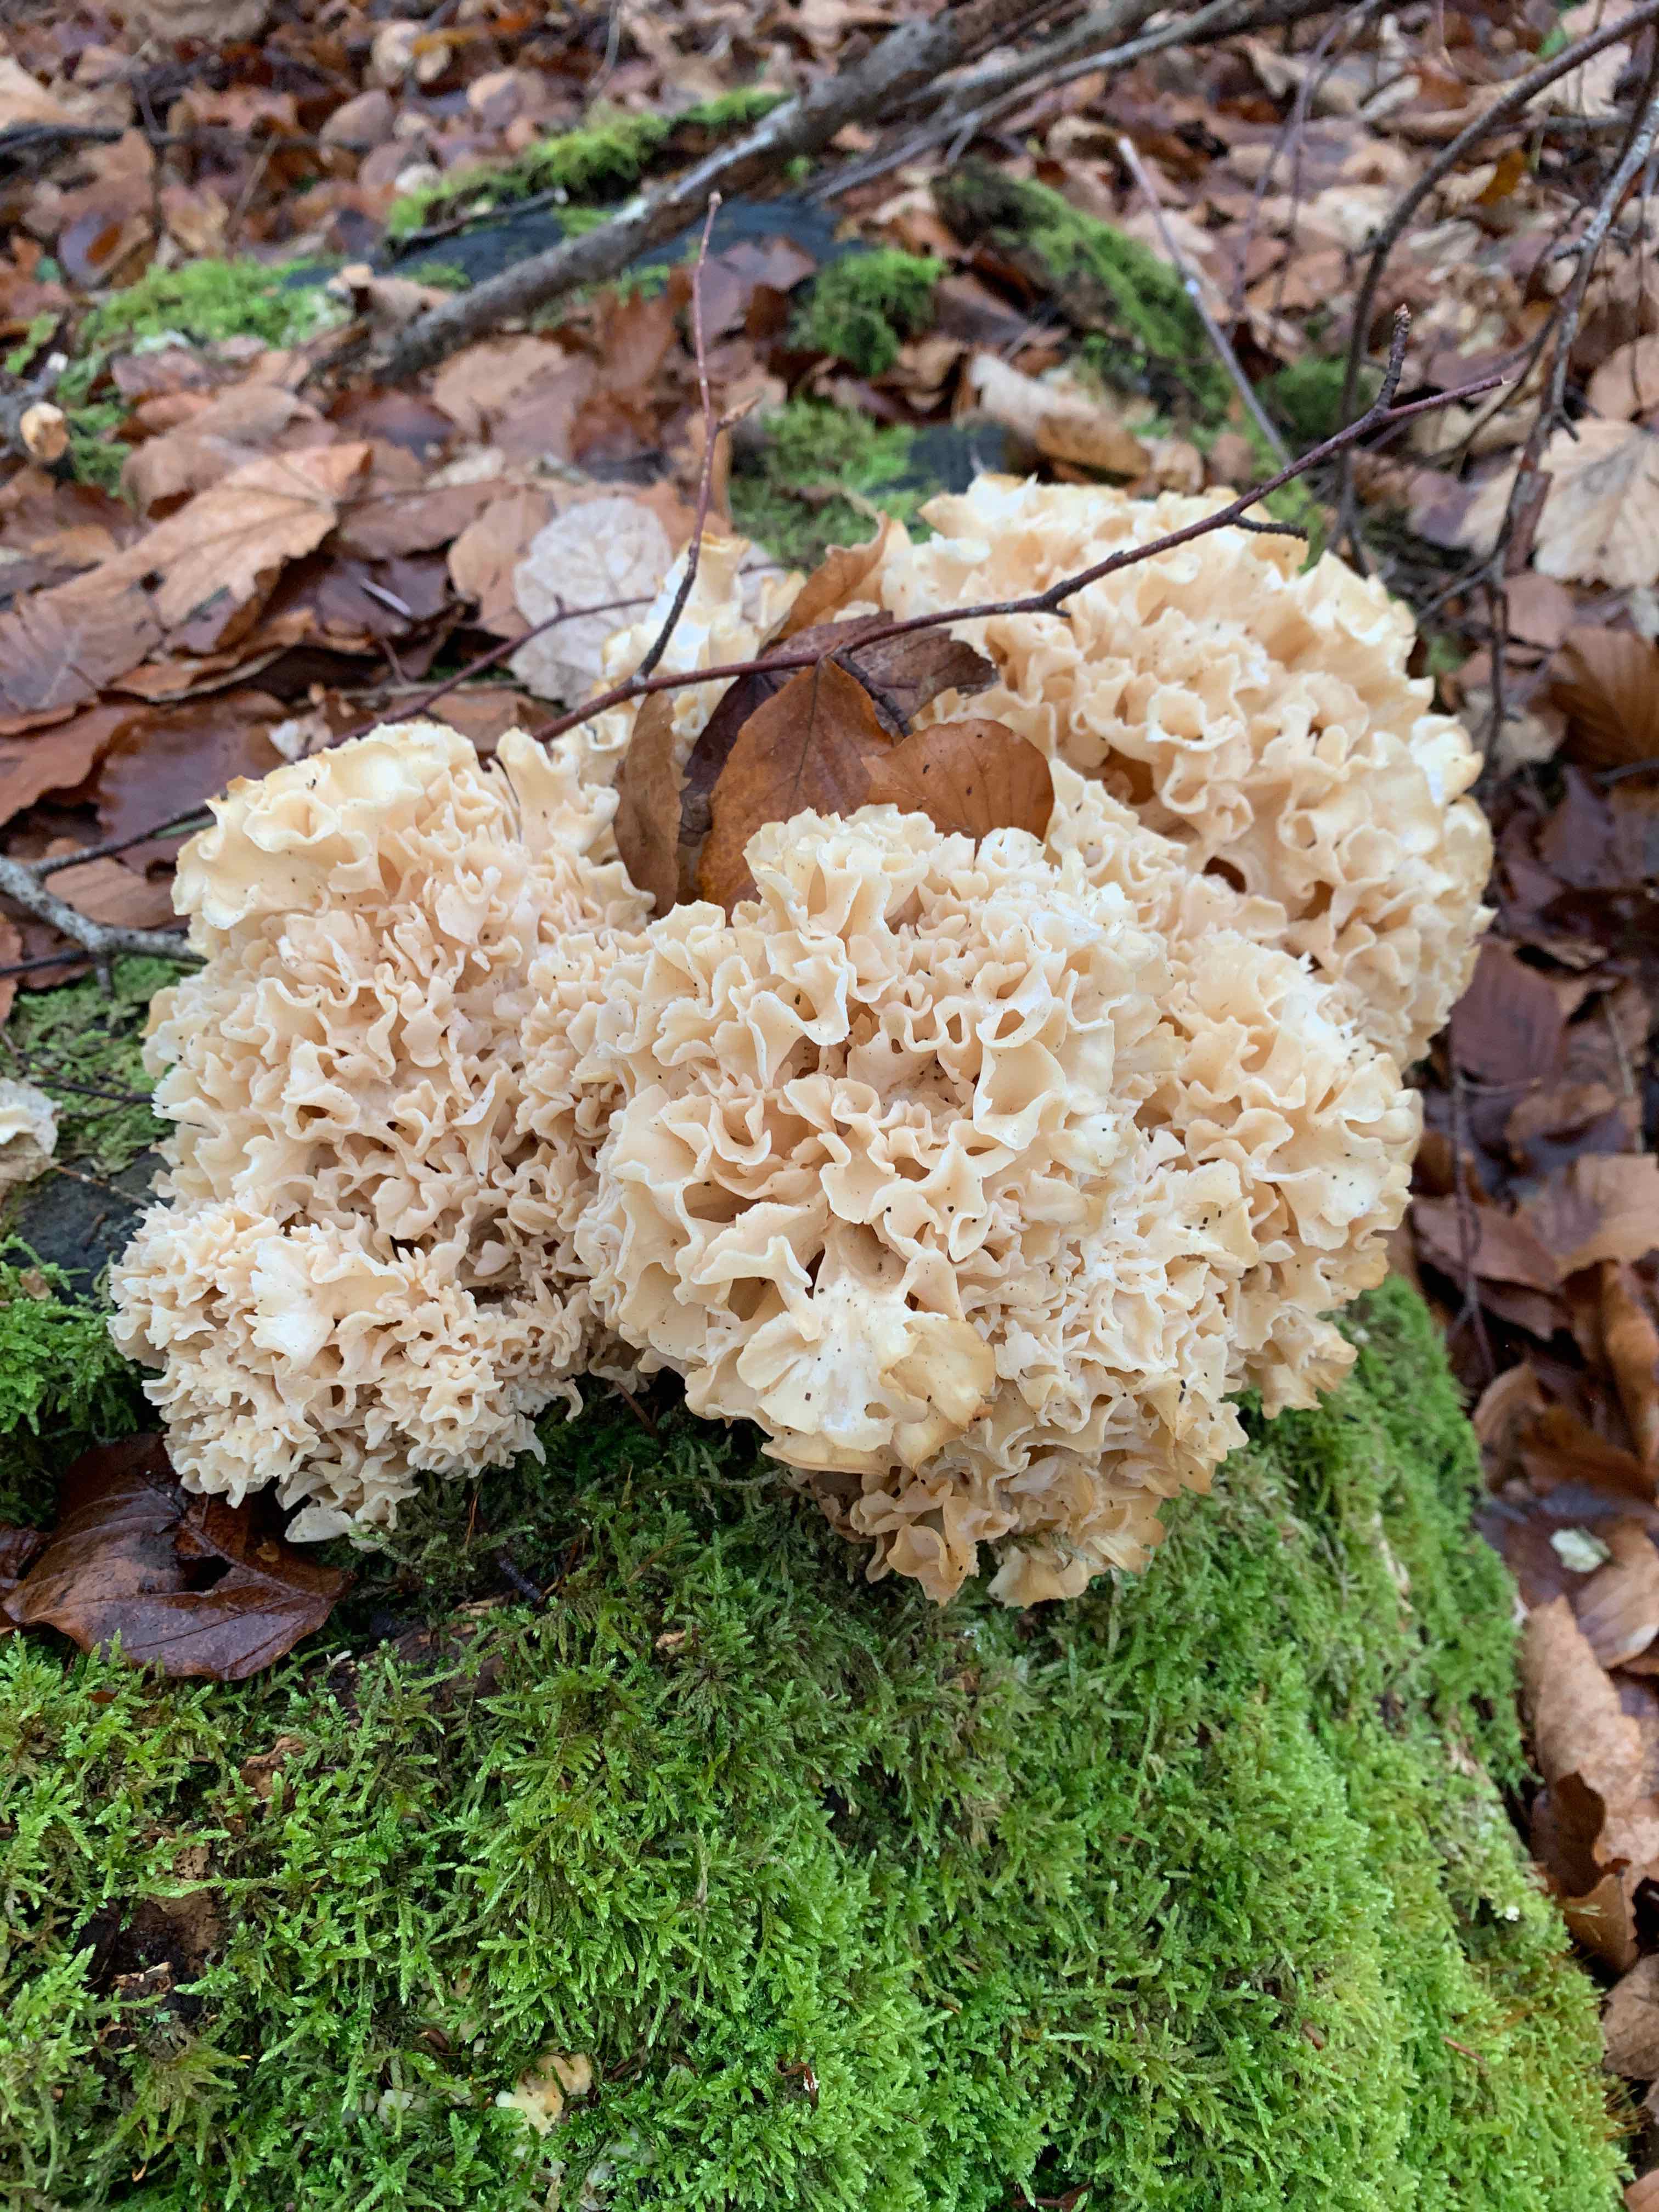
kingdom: Fungi
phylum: Basidiomycota
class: Agaricomycetes
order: Polyporales
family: Sparassidaceae
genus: Sparassis
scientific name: Sparassis crispa
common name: kruset blomkålssvamp
